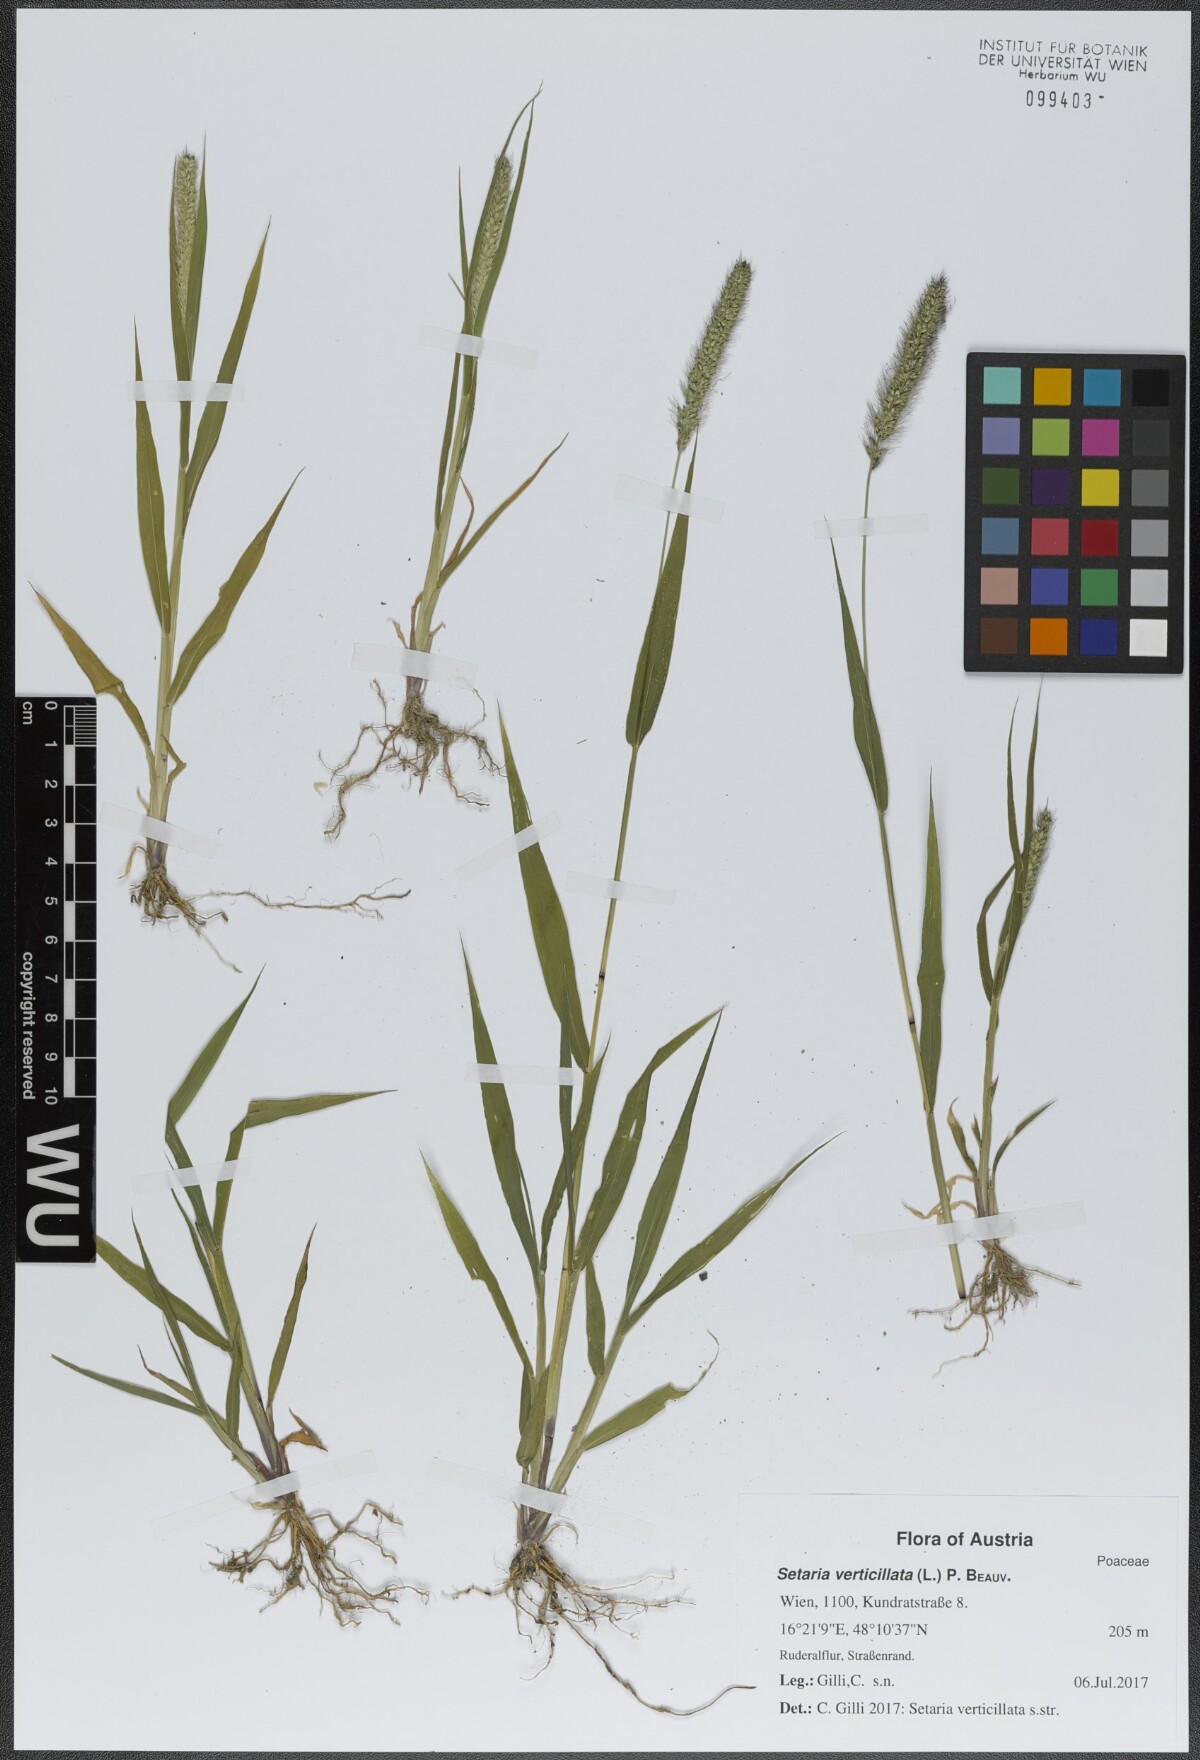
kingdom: Plantae
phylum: Tracheophyta
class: Liliopsida
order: Poales
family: Poaceae
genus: Setaria
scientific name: Setaria verticillata
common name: Hooked bristlegrass
